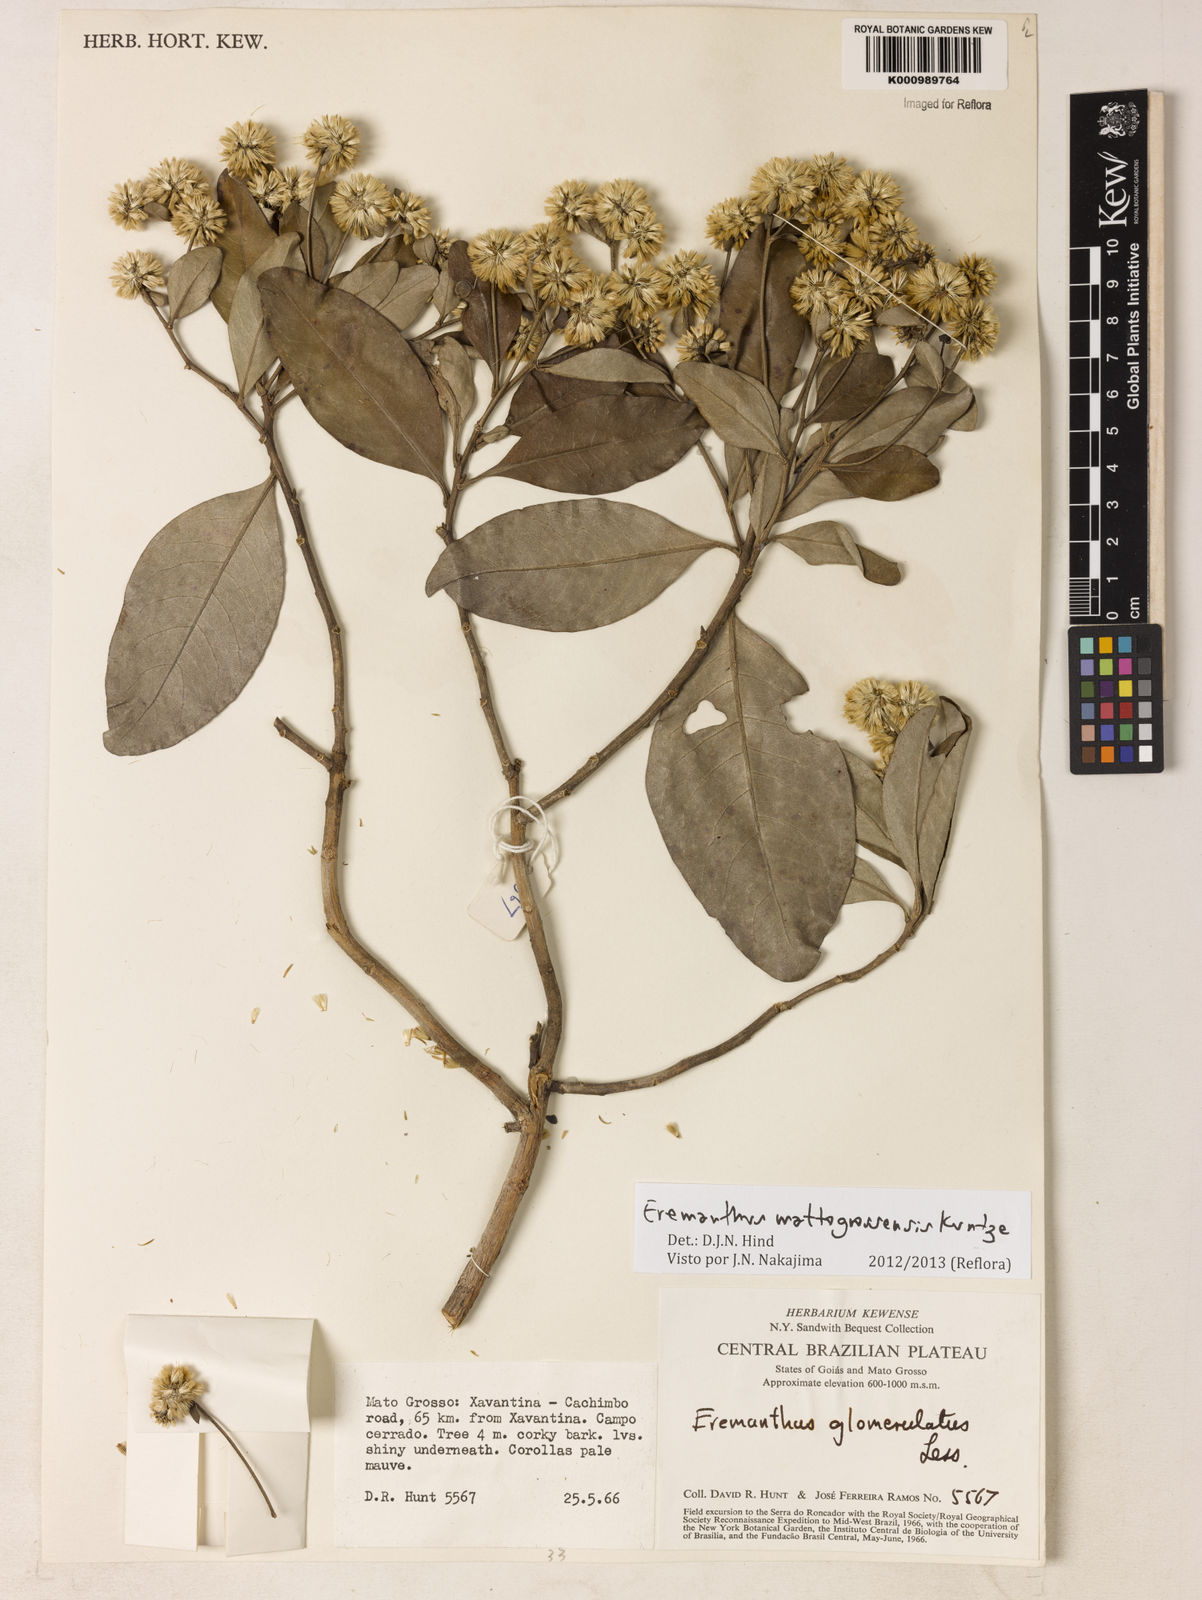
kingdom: Plantae
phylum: Tracheophyta
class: Magnoliopsida
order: Asterales
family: Asteraceae
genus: Eremanthus
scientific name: Eremanthus mattogrossensis
